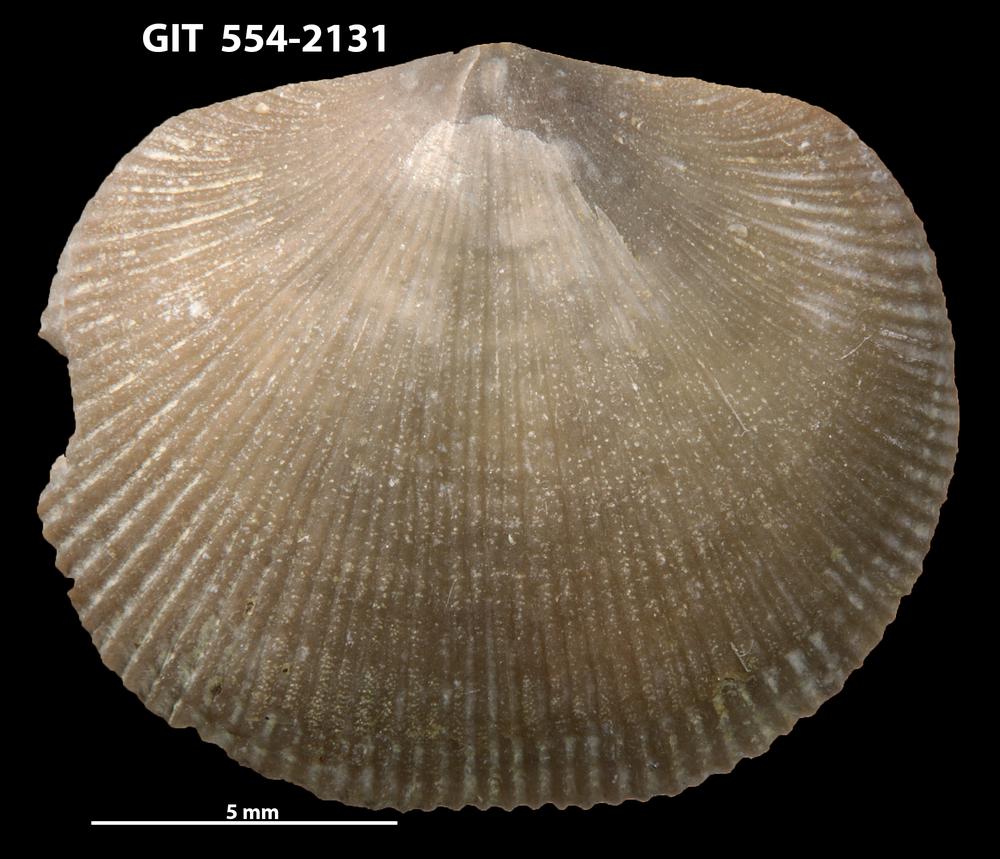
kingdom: Animalia
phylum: Brachiopoda
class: Rhynchonellata
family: Dalmanellidae
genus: Levenea
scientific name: Levenea Orthis canaliculata
